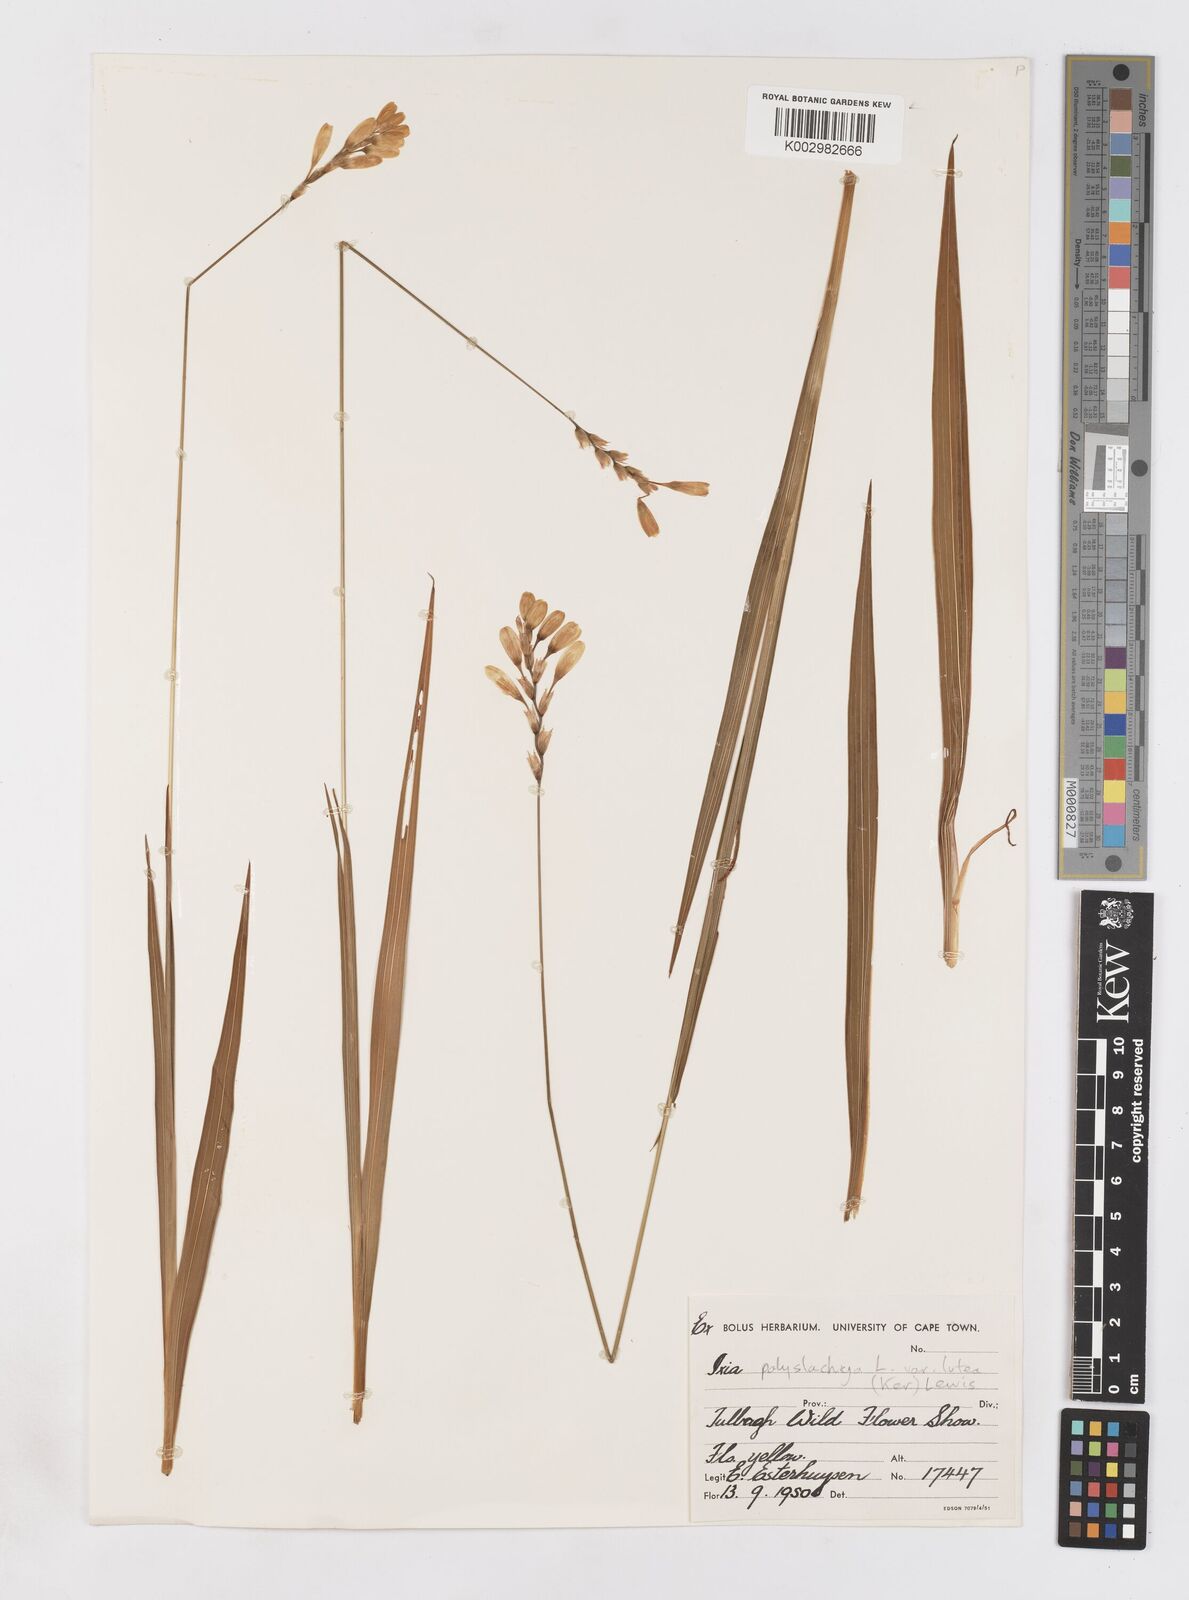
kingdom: Plantae
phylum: Tracheophyta
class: Liliopsida
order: Asparagales
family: Iridaceae
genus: Ixia
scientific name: Ixia polystachya
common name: White-and-yellow-flower cornlily
